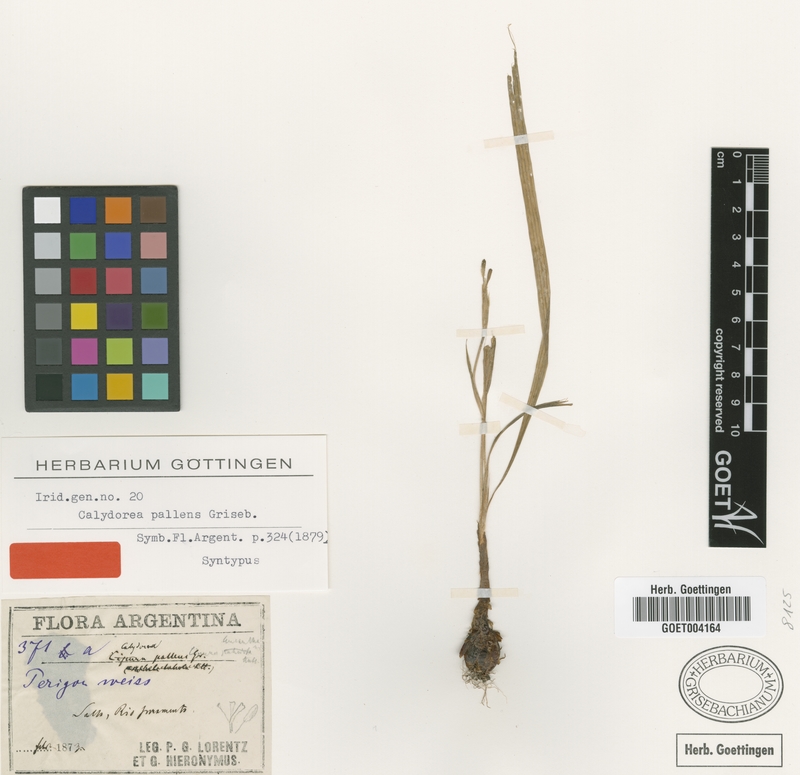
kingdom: Plantae
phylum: Tracheophyta
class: Liliopsida
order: Asparagales
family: Iridaceae
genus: Calydorea
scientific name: Calydorea pallens
